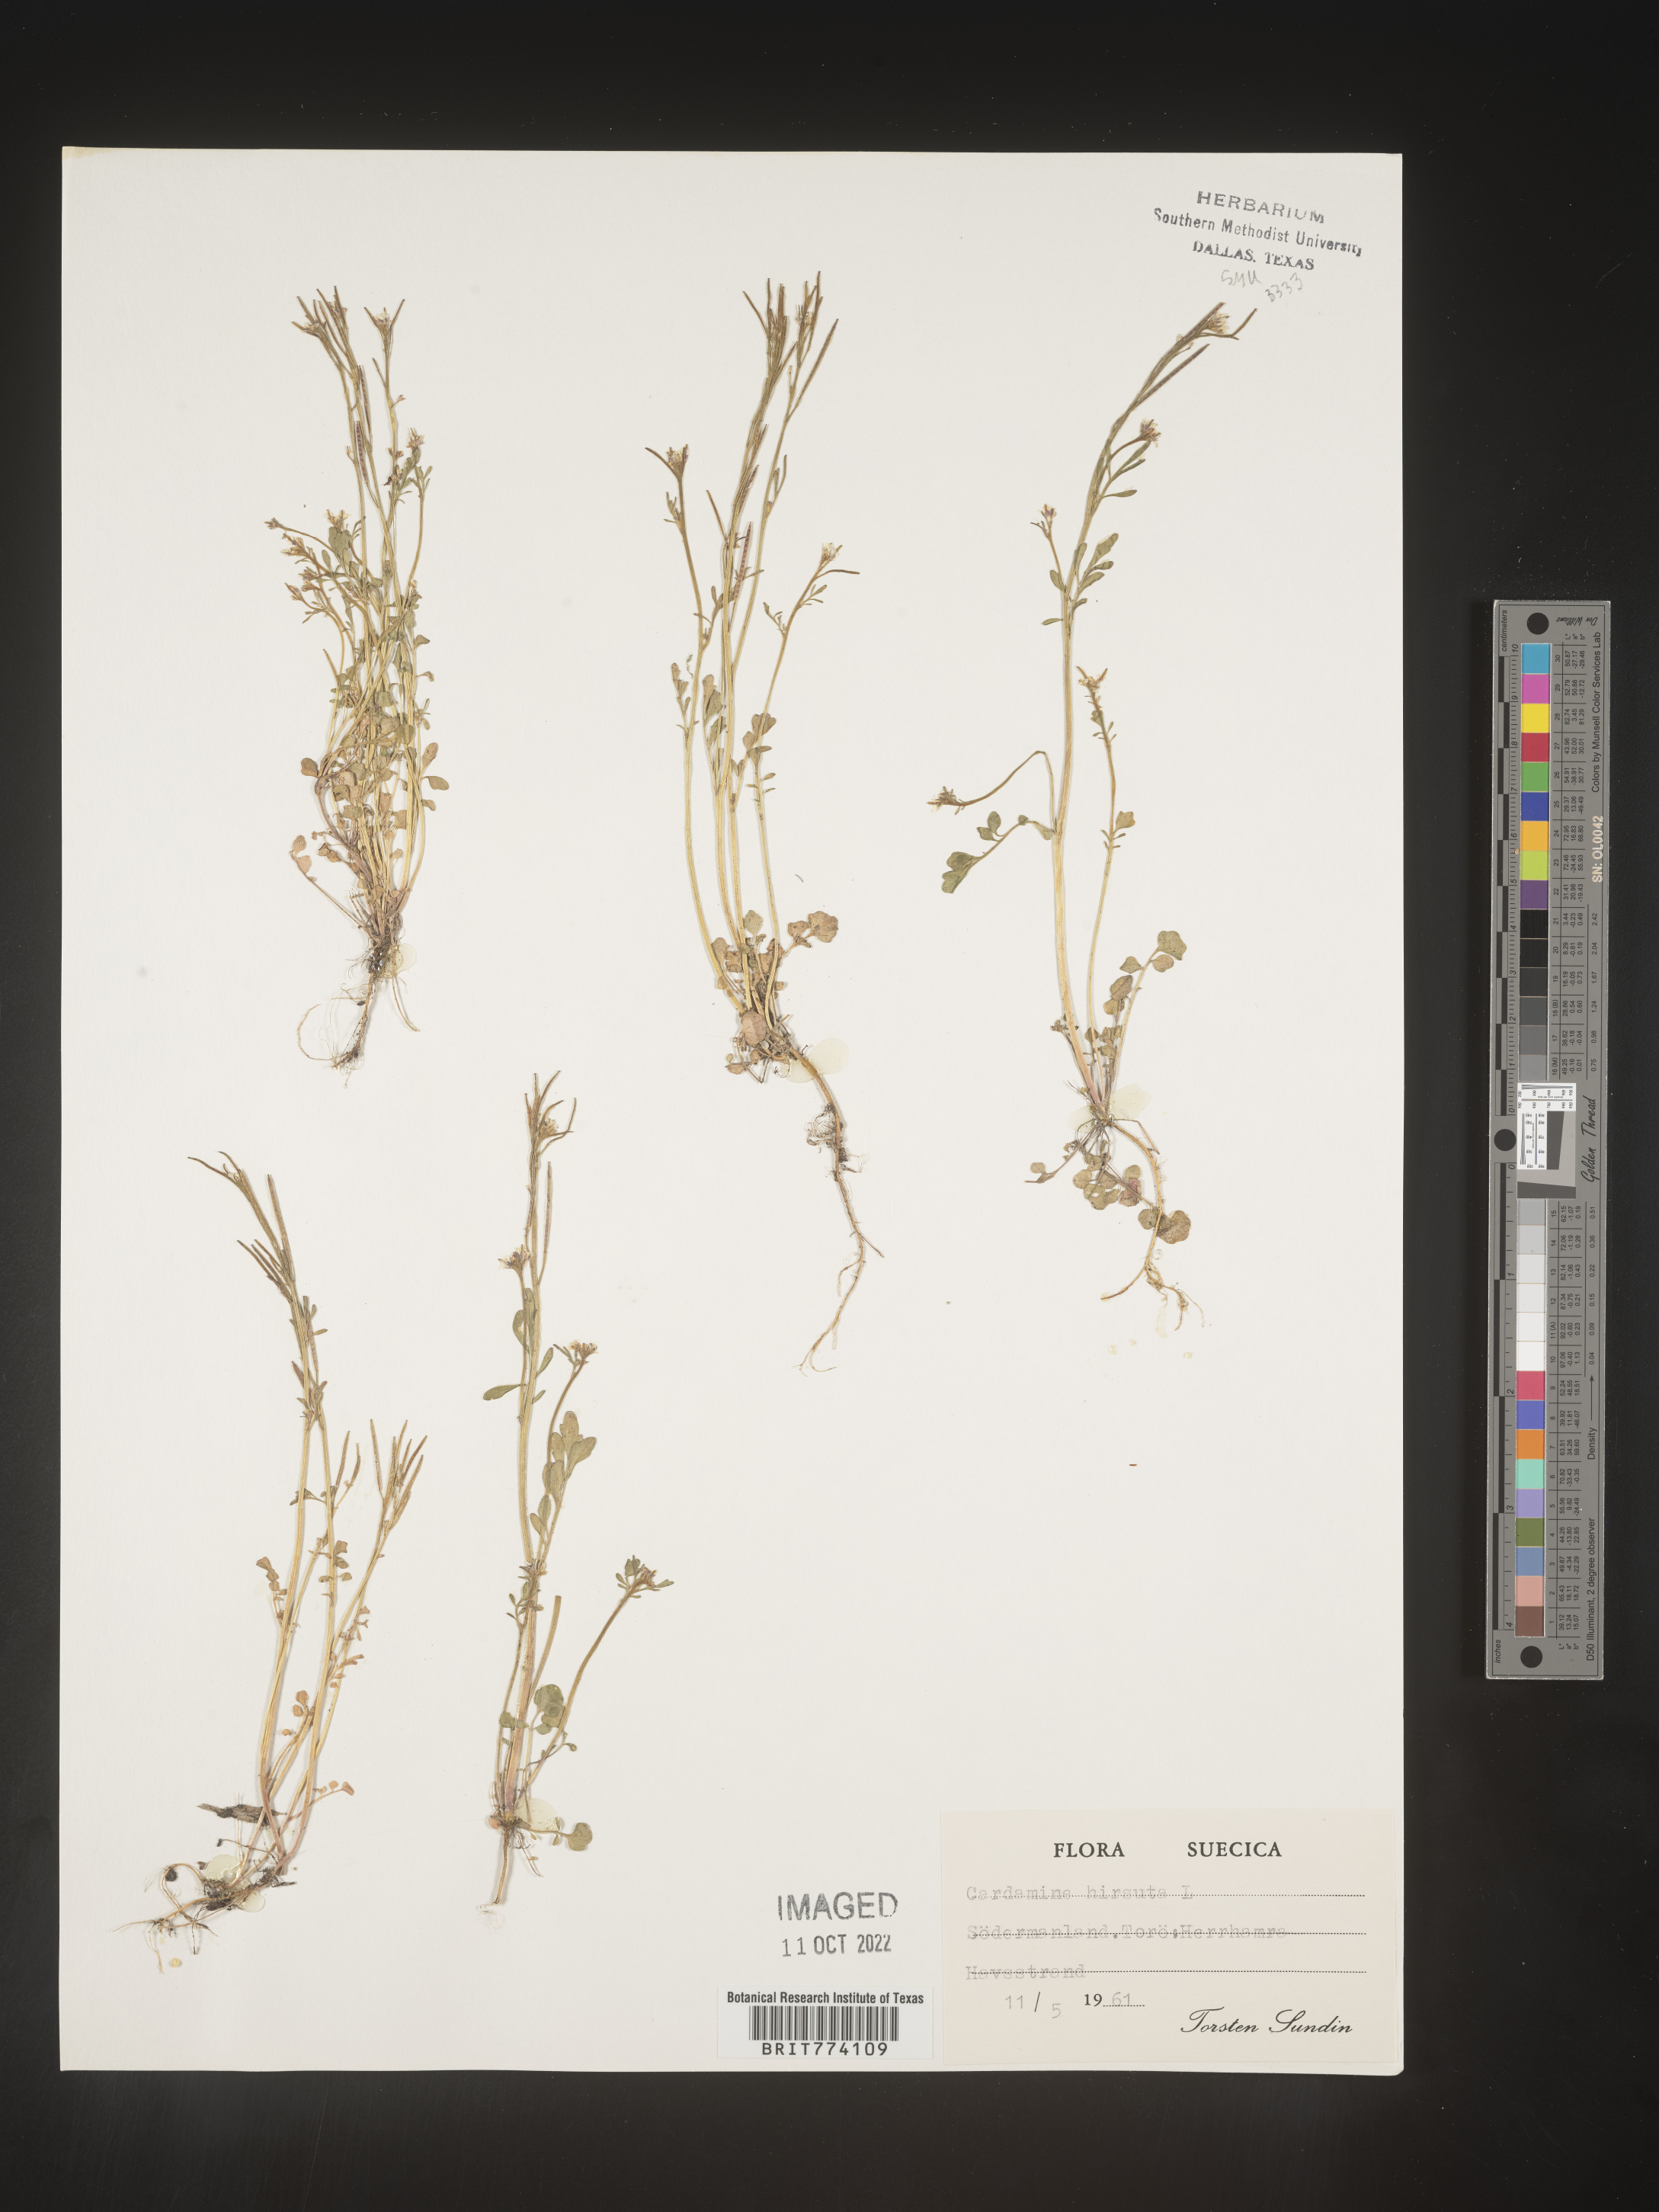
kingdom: Plantae
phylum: Tracheophyta
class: Magnoliopsida
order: Brassicales
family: Brassicaceae
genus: Cardamine
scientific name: Cardamine hirsuta
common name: Hairy bittercress
